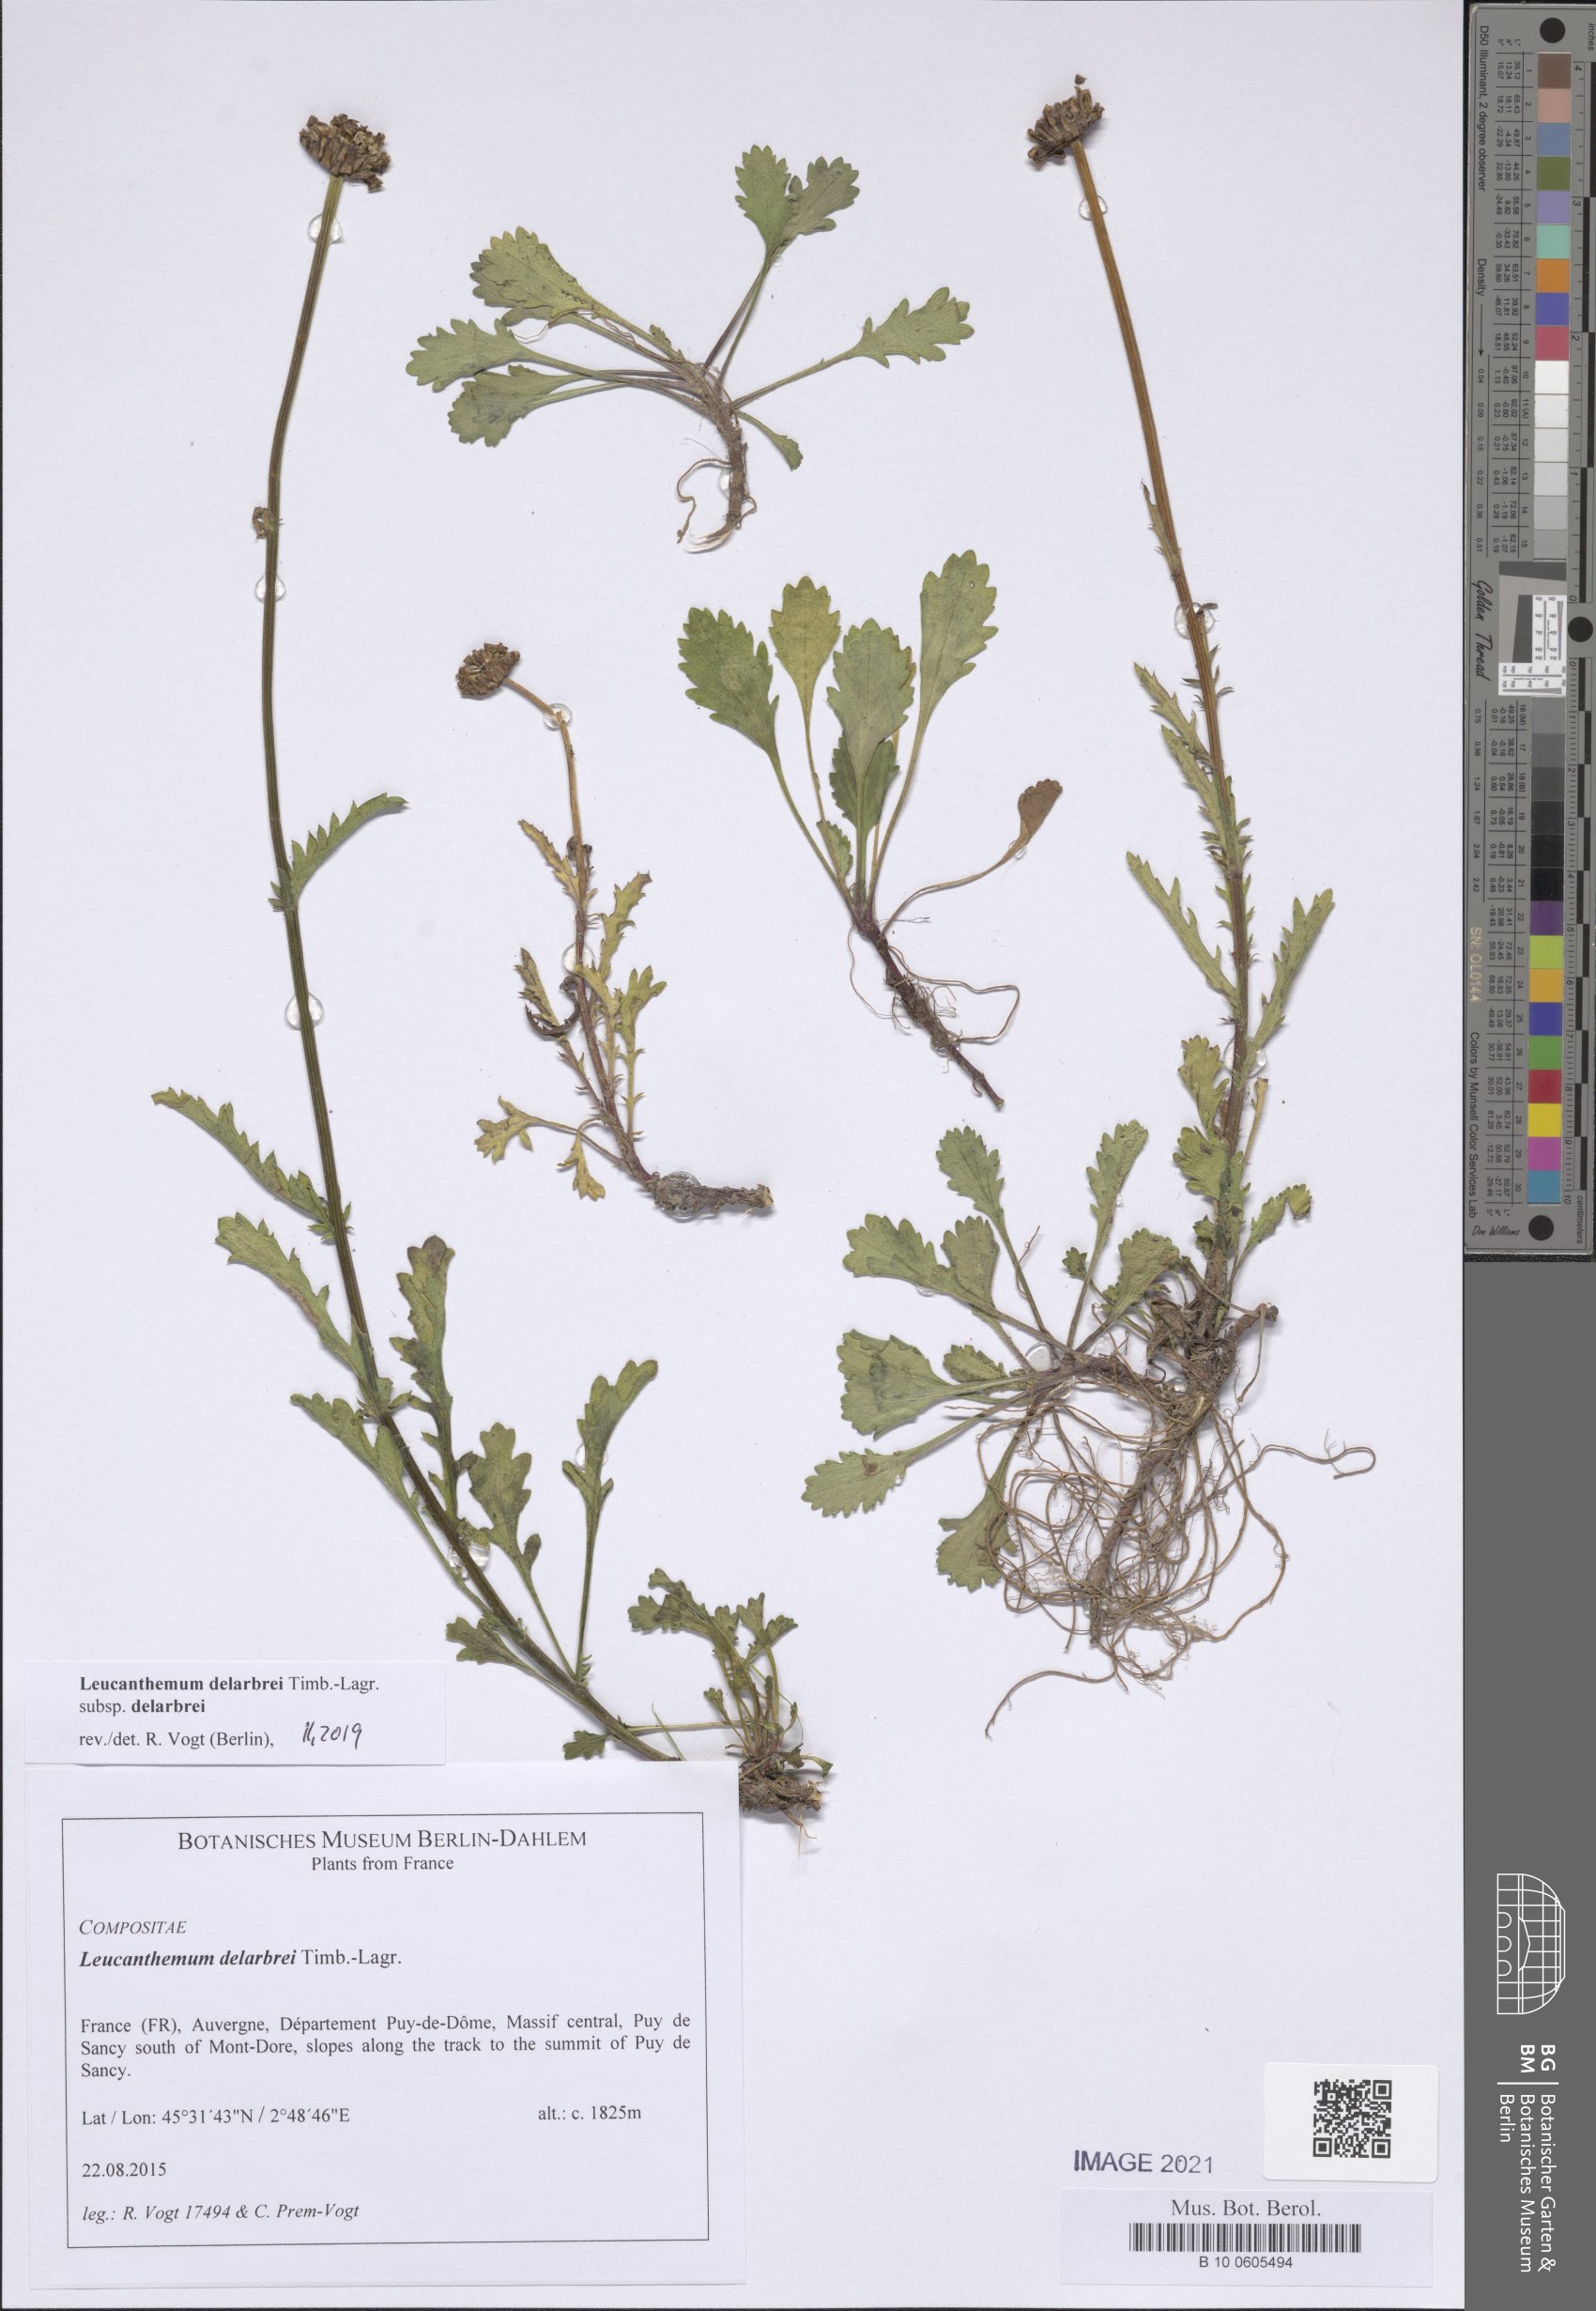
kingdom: Plantae
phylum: Tracheophyta
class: Magnoliopsida
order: Asterales
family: Asteraceae
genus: Leucanthemum
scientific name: Leucanthemum delarbrei
